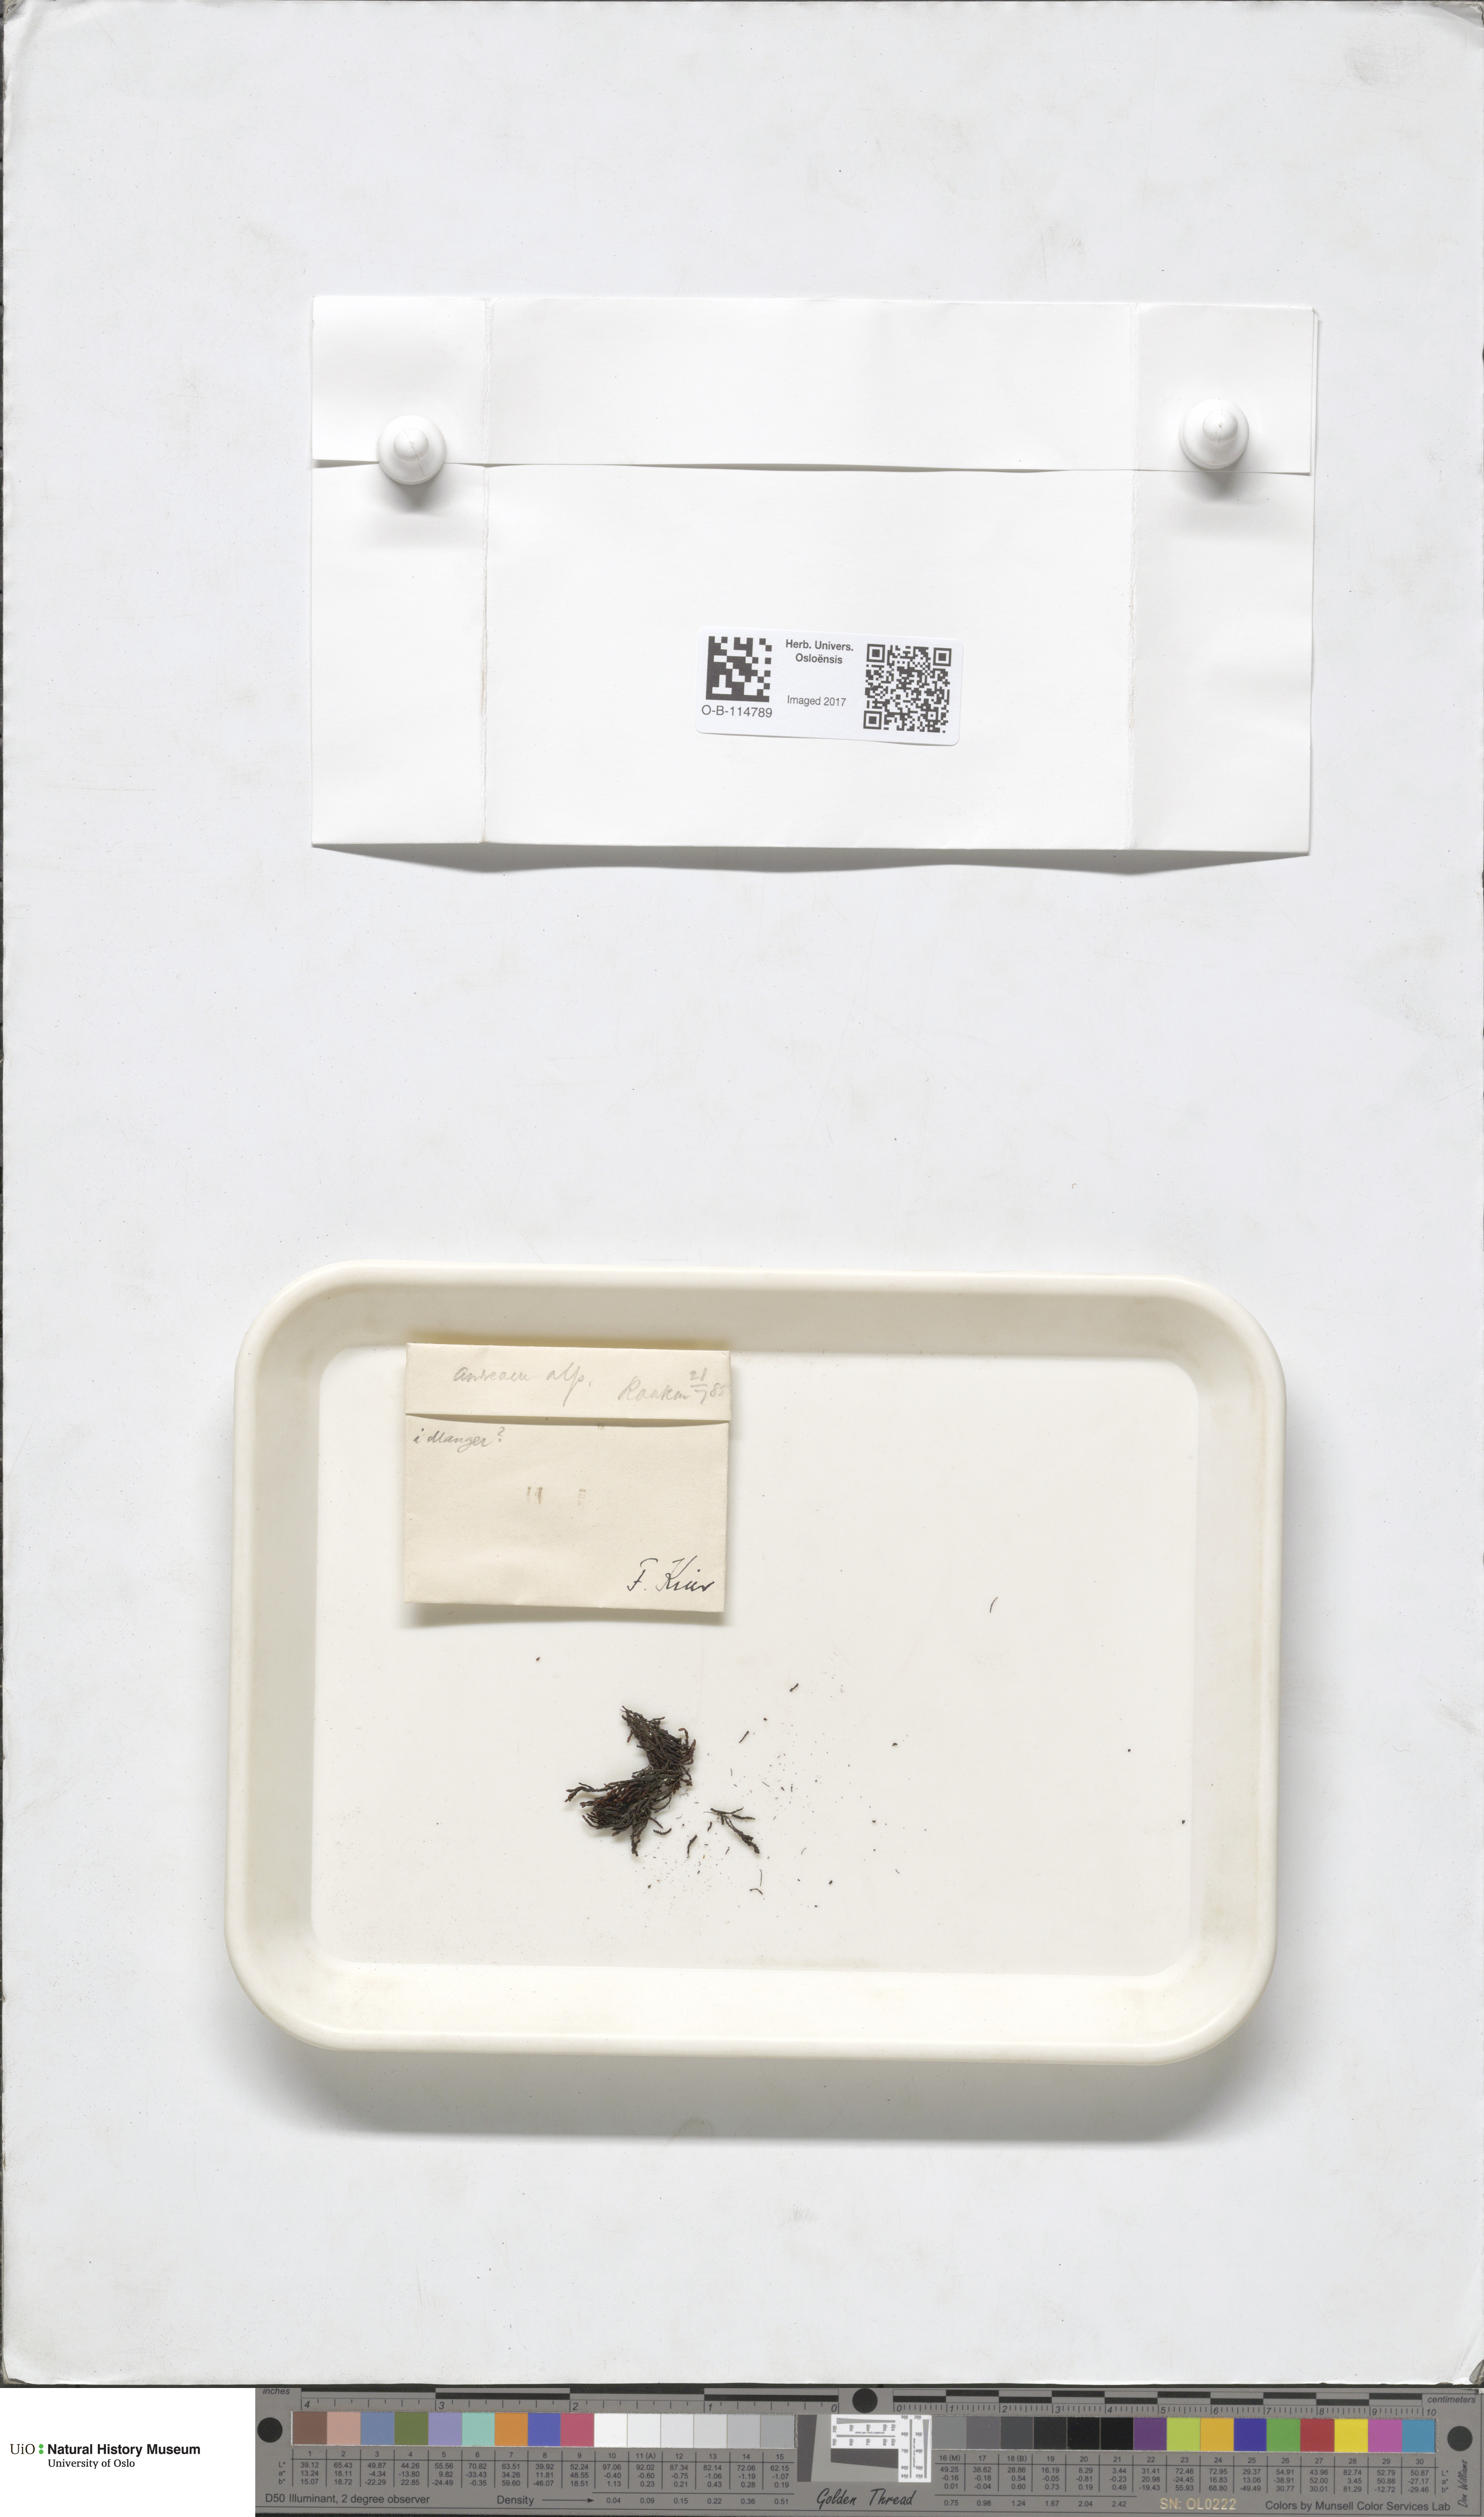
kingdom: Plantae
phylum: Bryophyta
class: Andreaeopsida
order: Andreaeales
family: Andreaeaceae
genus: Andreaea
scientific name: Andreaea hookeri
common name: Alpine rock-moss
